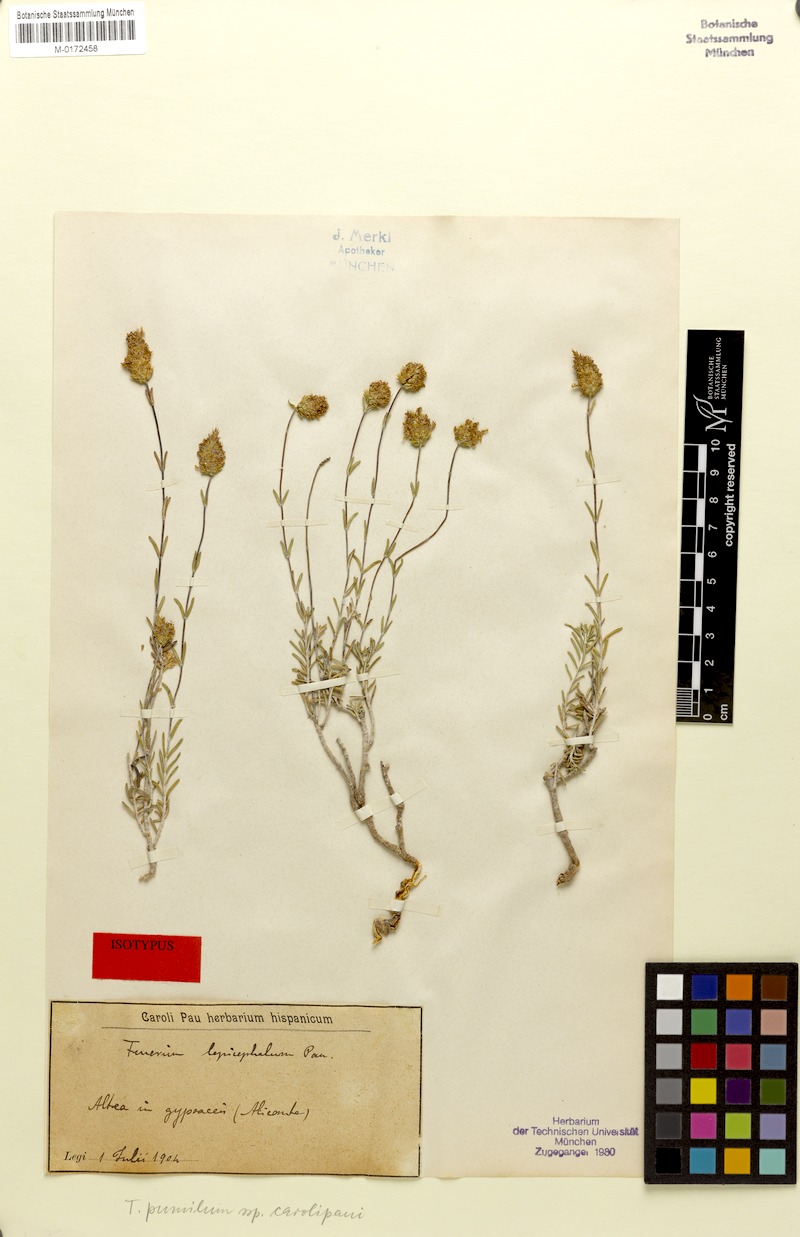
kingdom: Plantae
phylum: Tracheophyta
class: Magnoliopsida
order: Lamiales
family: Lamiaceae
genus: Teucrium
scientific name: Teucrium carolipaui
